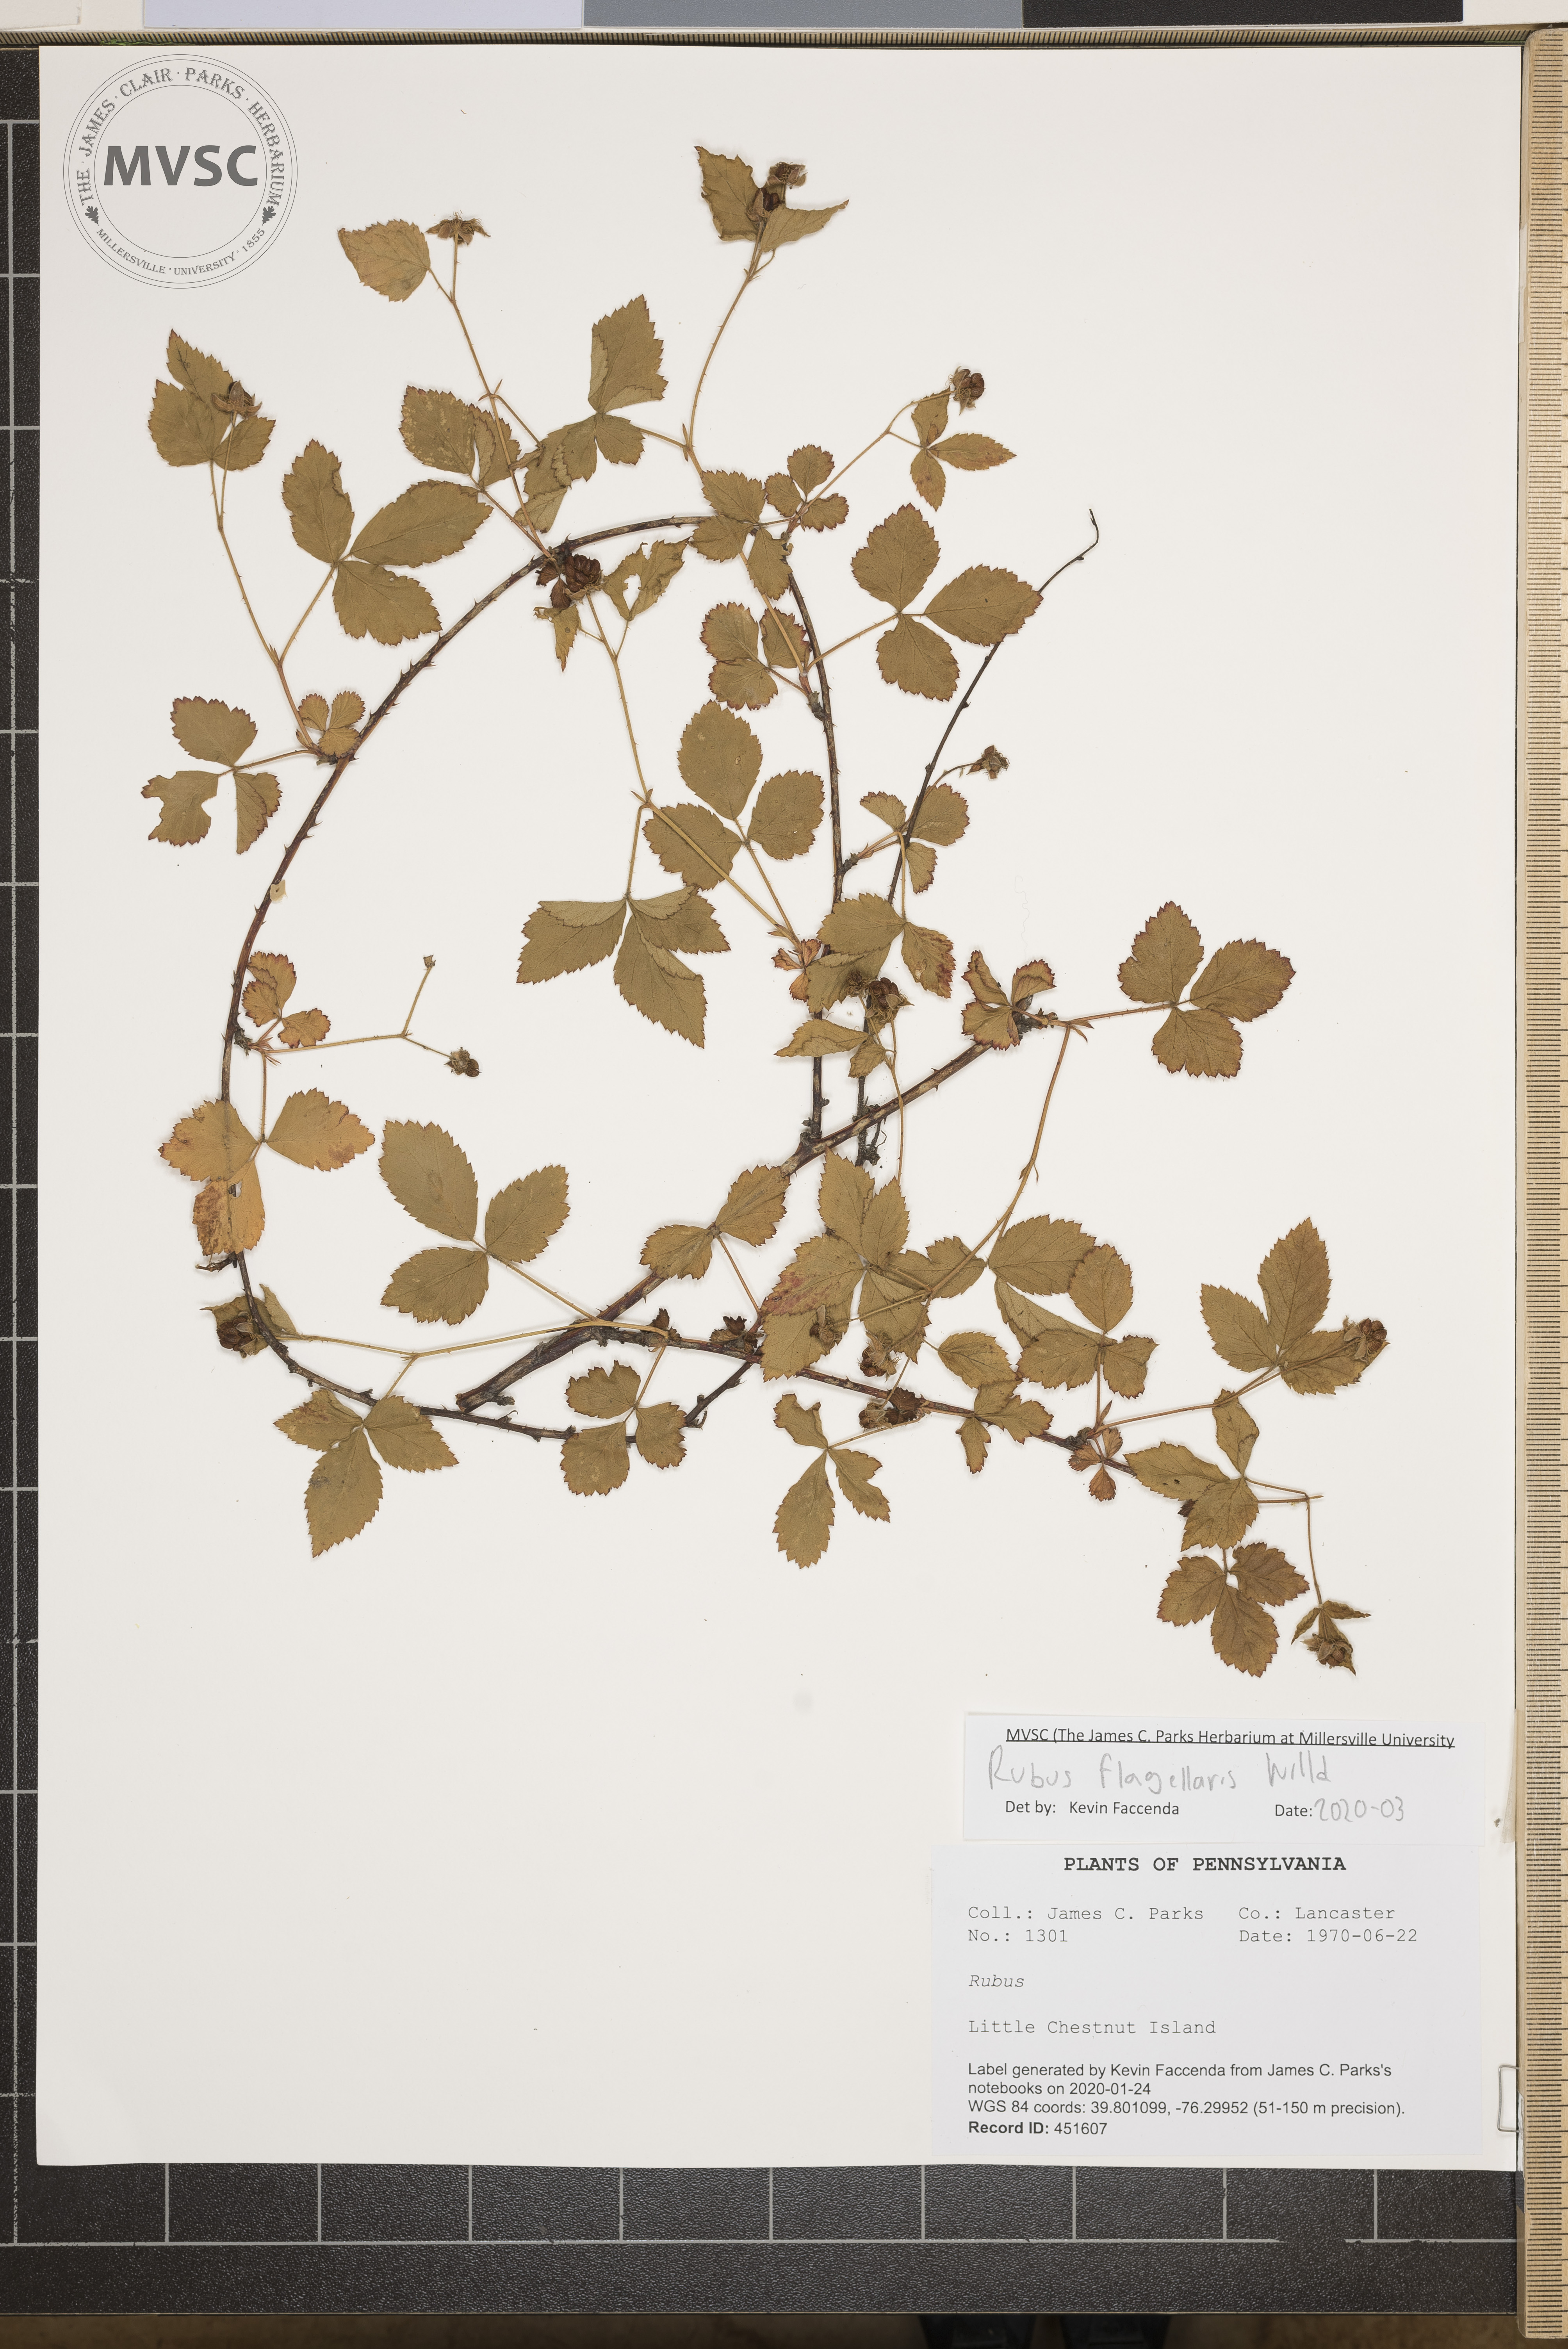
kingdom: Plantae
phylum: Tracheophyta
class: Magnoliopsida
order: Rosales
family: Rosaceae
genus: Rubus
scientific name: Rubus flagellaris
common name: American dewberry
